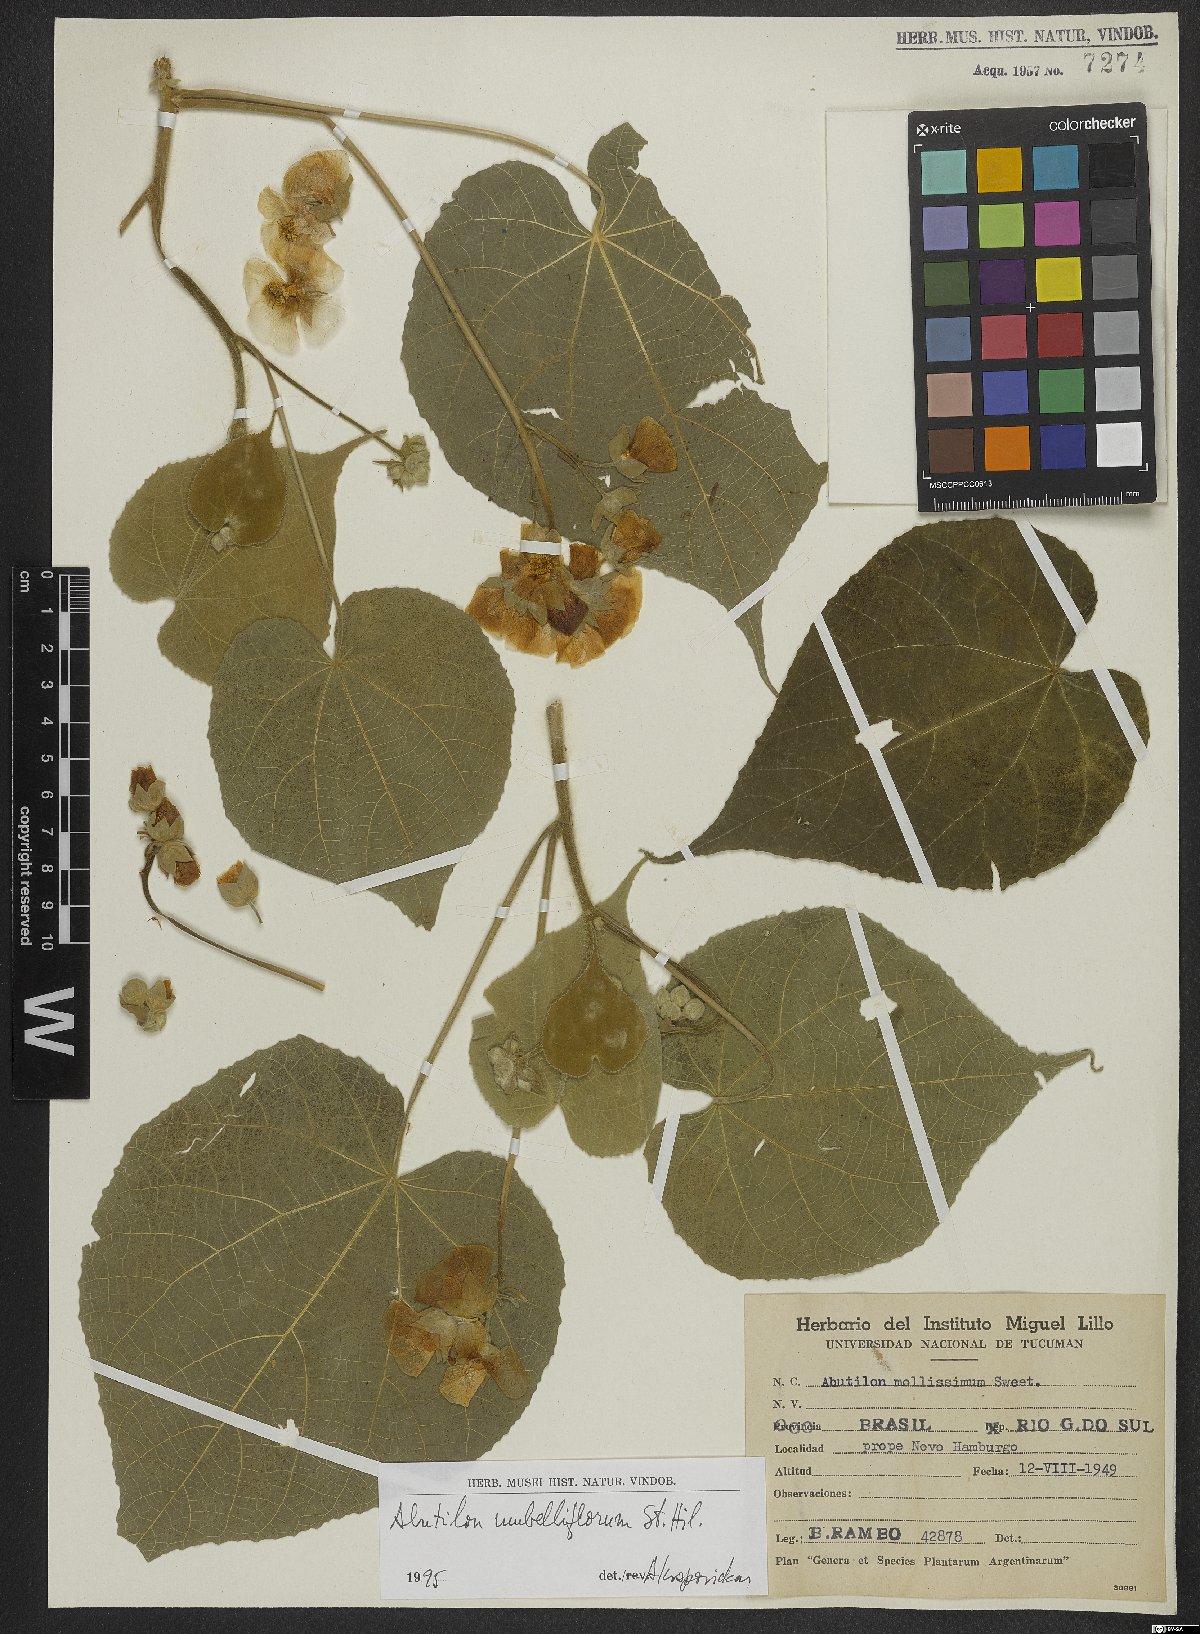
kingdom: Plantae
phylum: Tracheophyta
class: Magnoliopsida
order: Malvales
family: Malvaceae
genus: Abutilon
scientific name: Abutilon umbelliflorum
